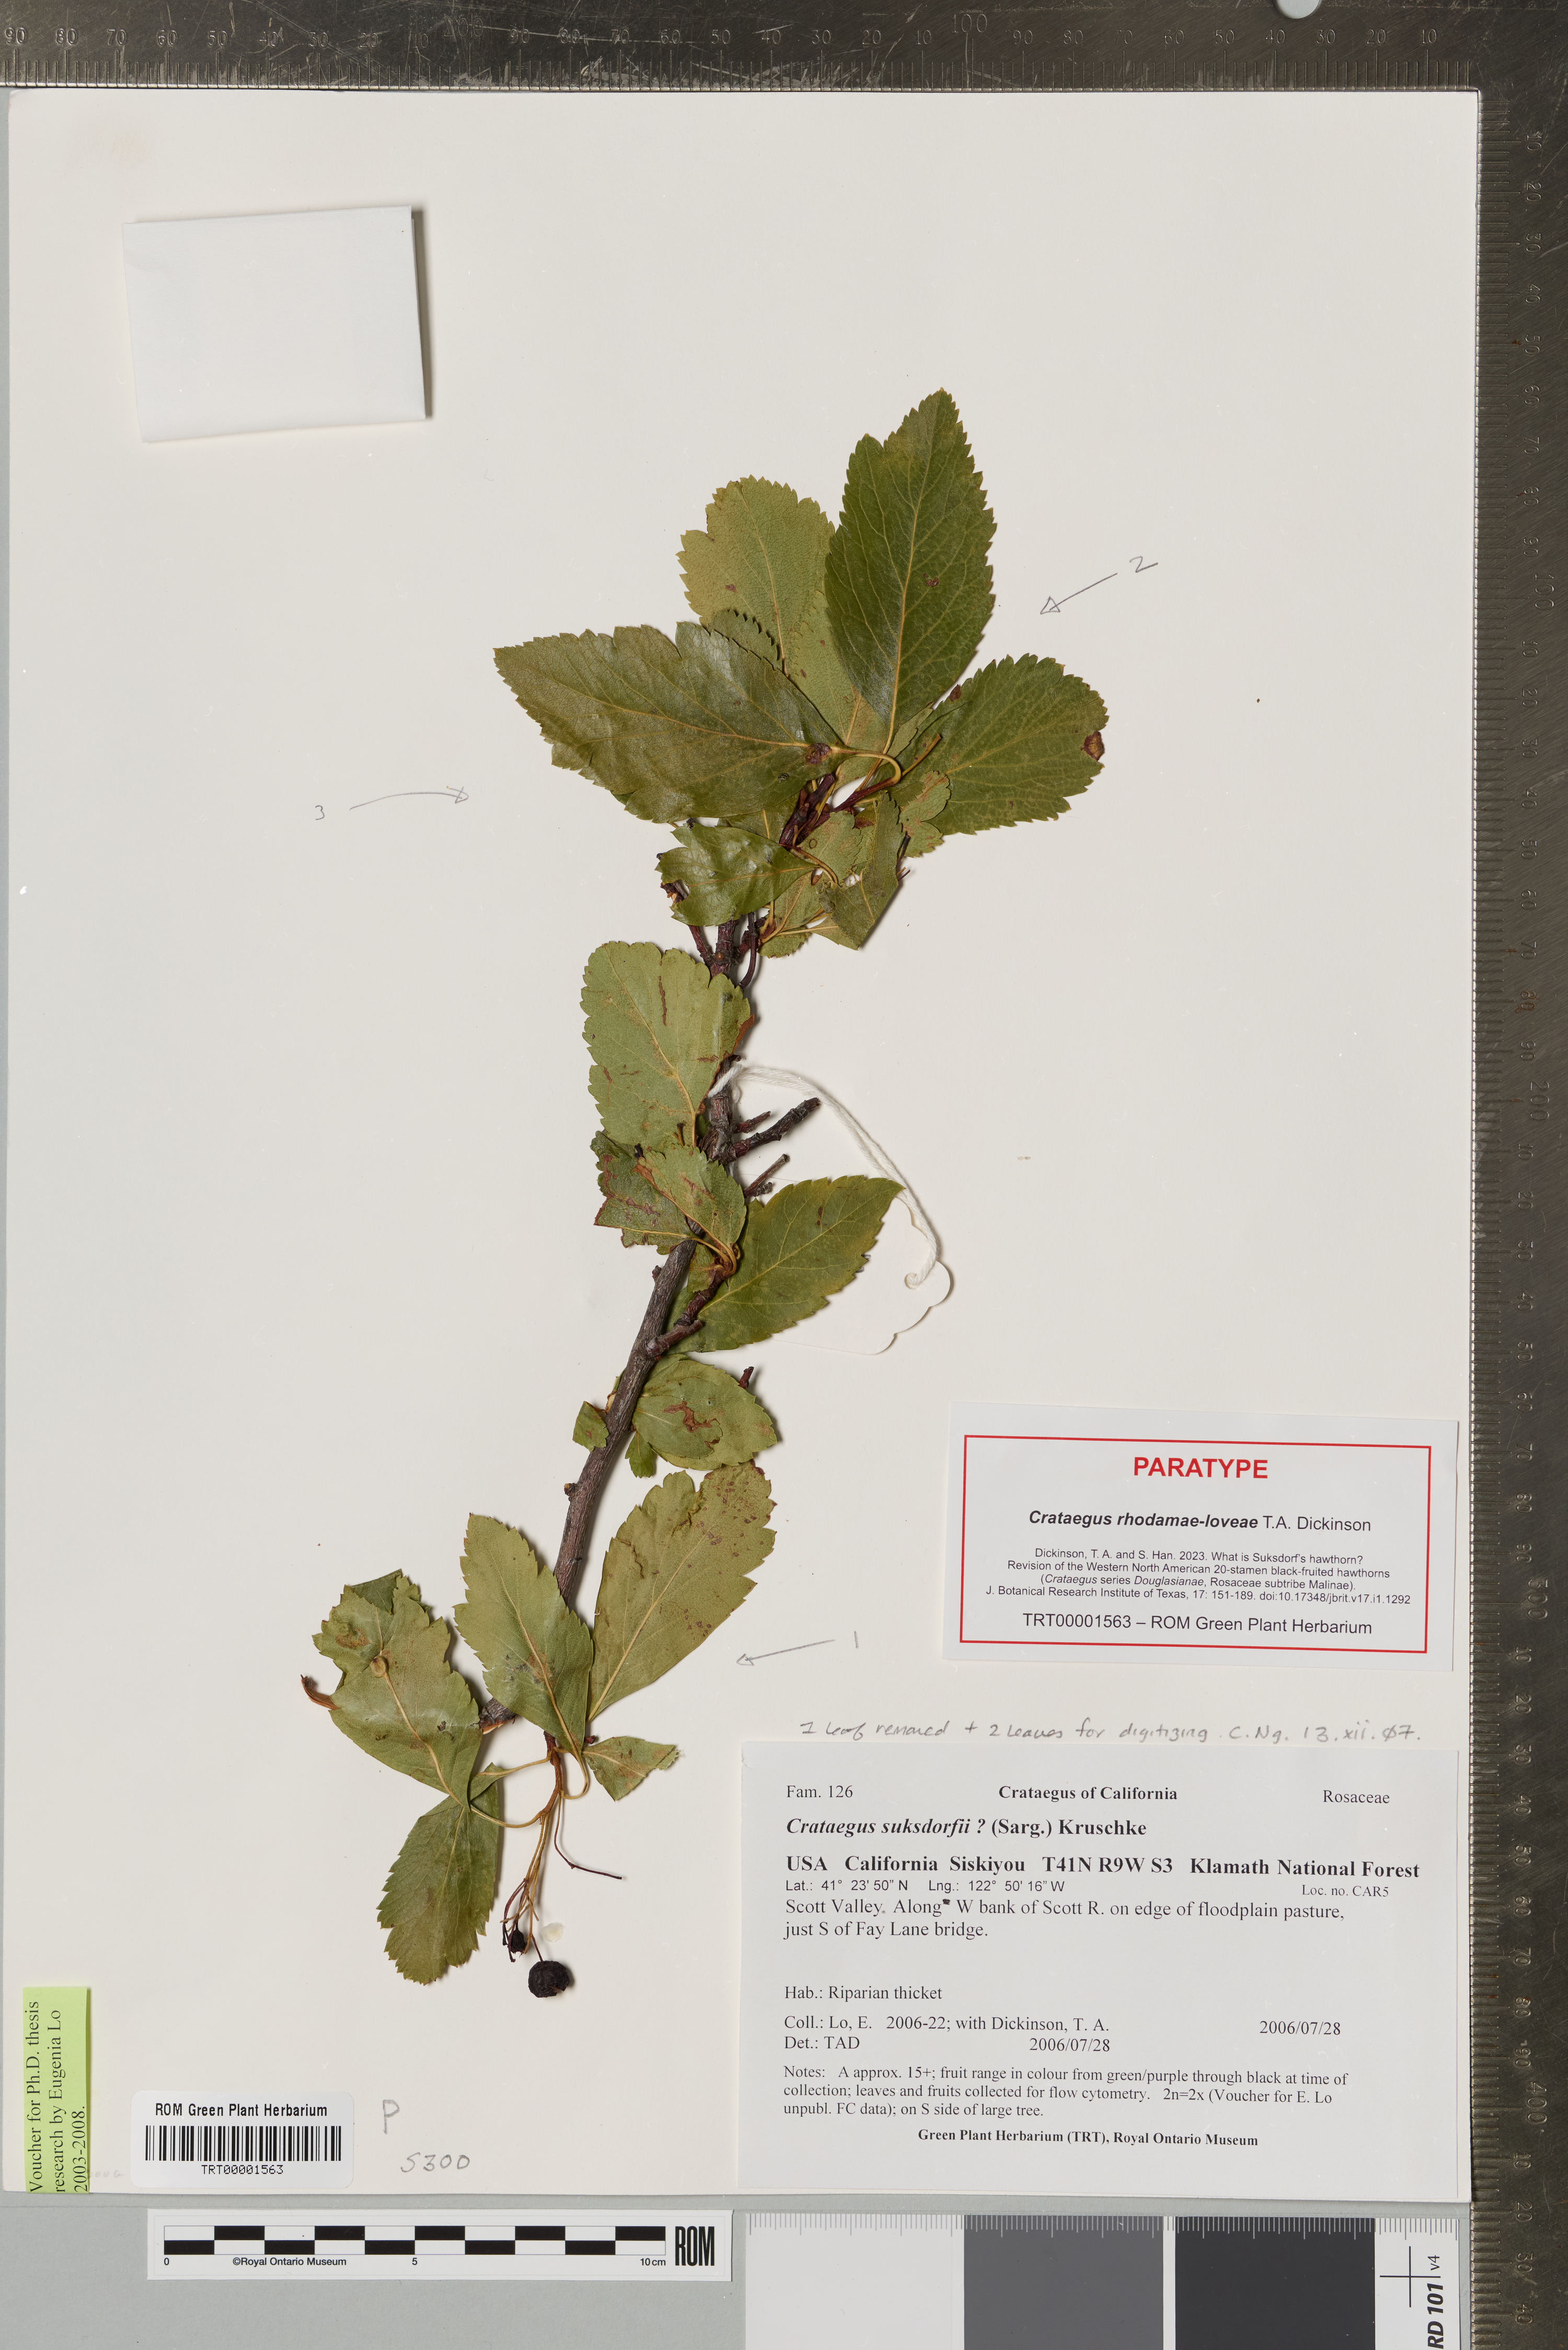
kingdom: Plantae
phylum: Tracheophyta
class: Magnoliopsida
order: Rosales
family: Rosaceae
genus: Crataegus
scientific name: Crataegus gaylussacia
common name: Huckleberry hawthorn
